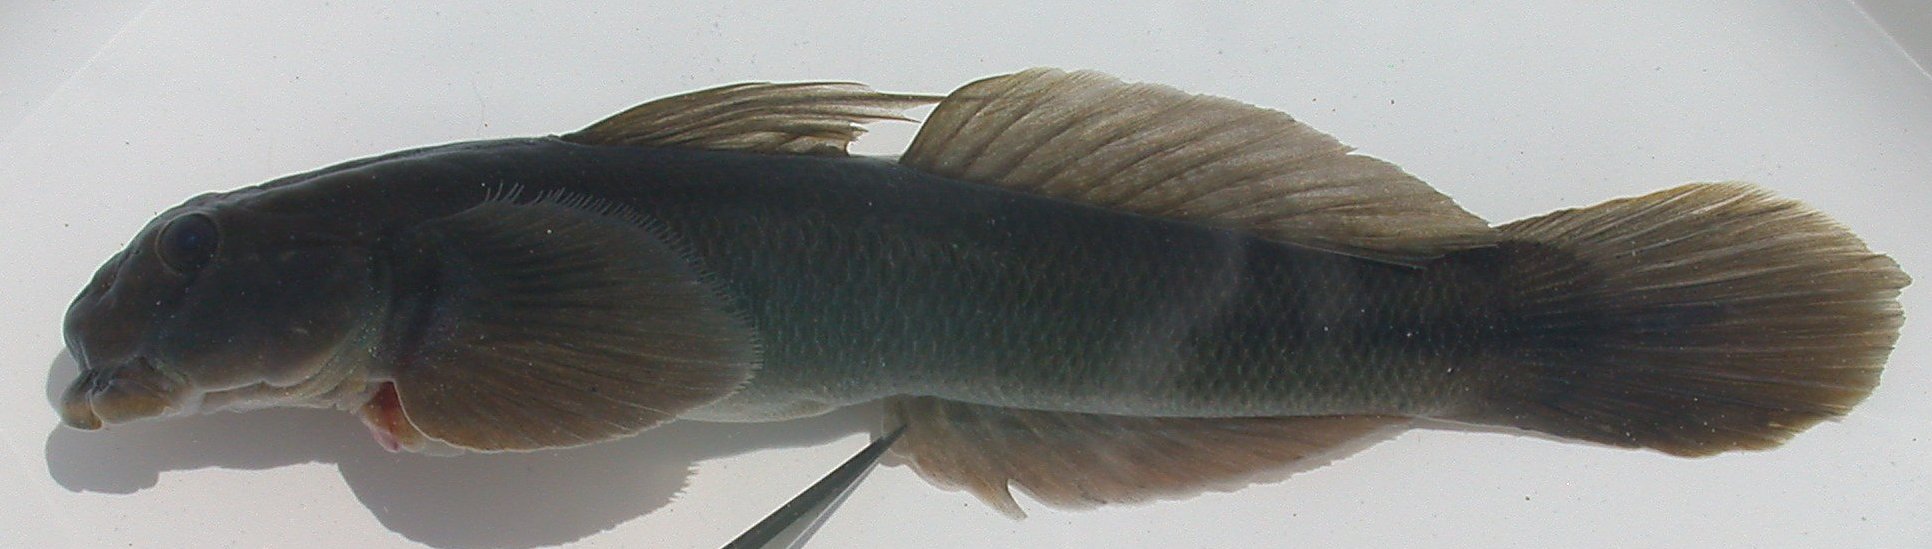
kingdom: Animalia
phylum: Chordata
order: Perciformes
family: Gobiidae
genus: Sicyopterus
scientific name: Sicyopterus franouxi
